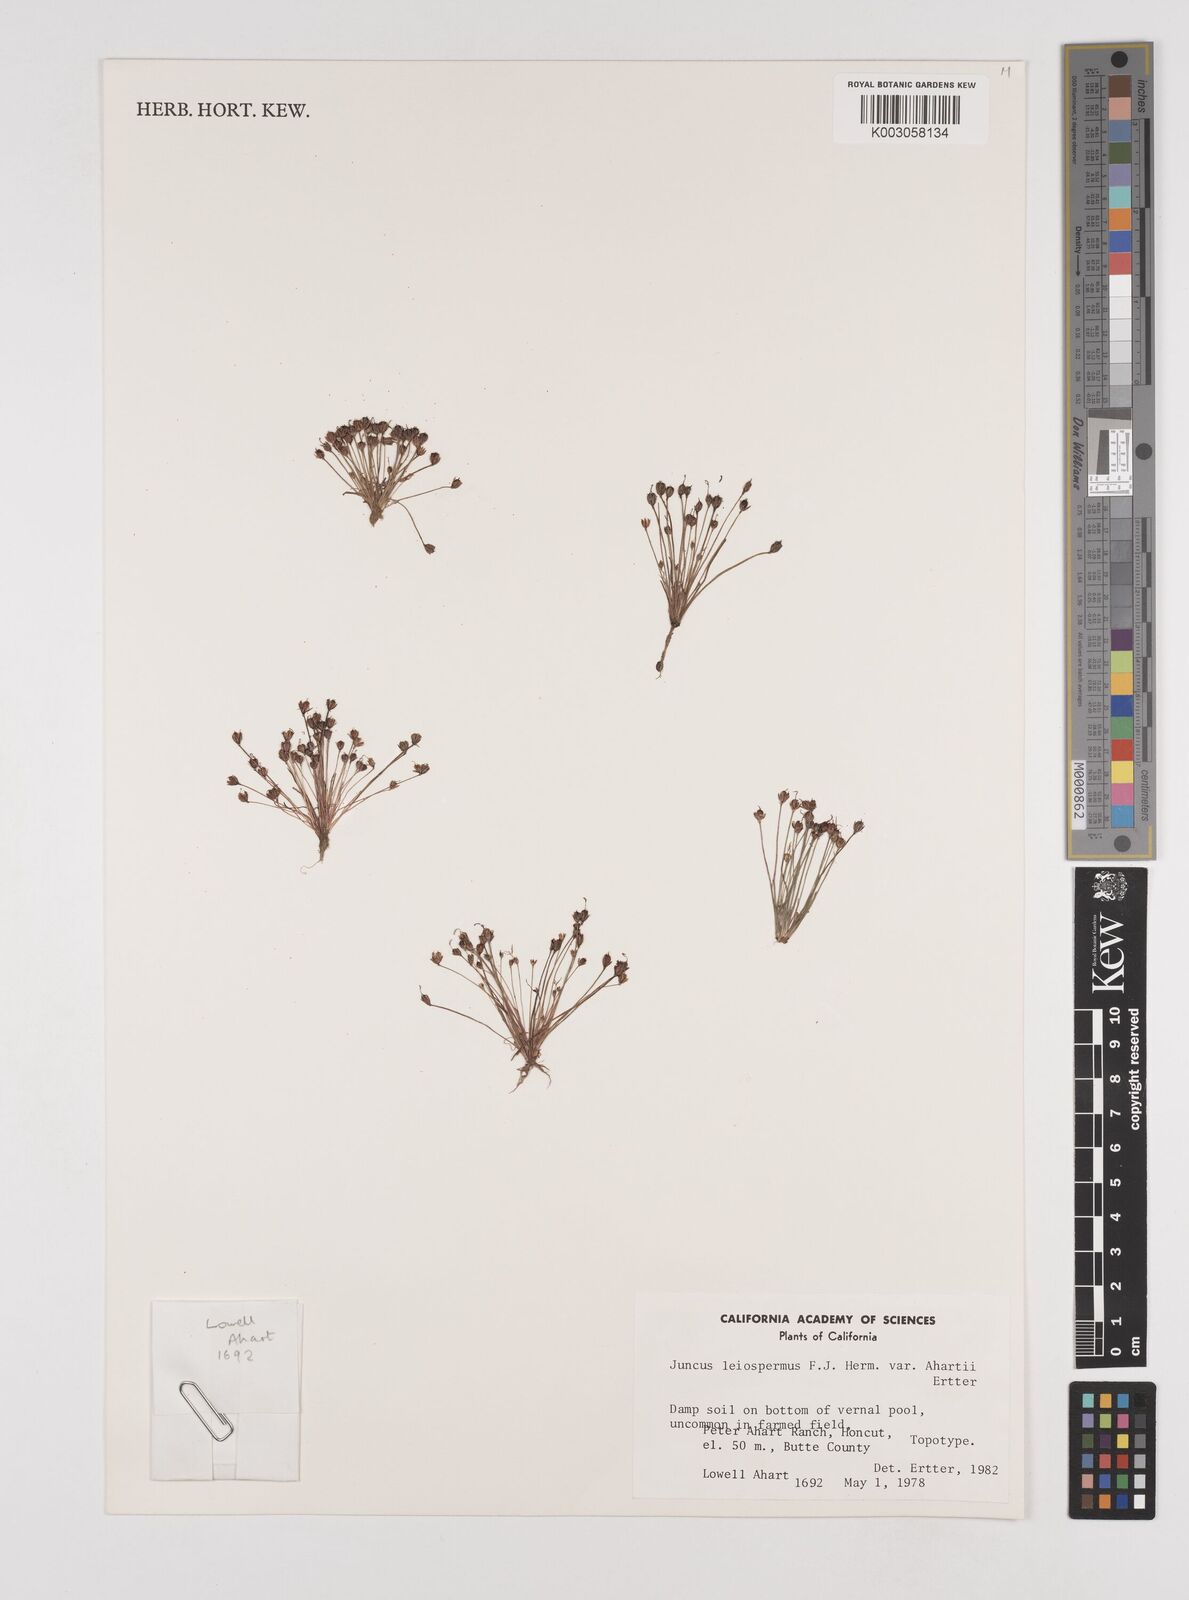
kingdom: Plantae
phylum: Tracheophyta
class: Liliopsida
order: Poales
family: Juncaceae
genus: Juncus
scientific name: Juncus leiospermus
